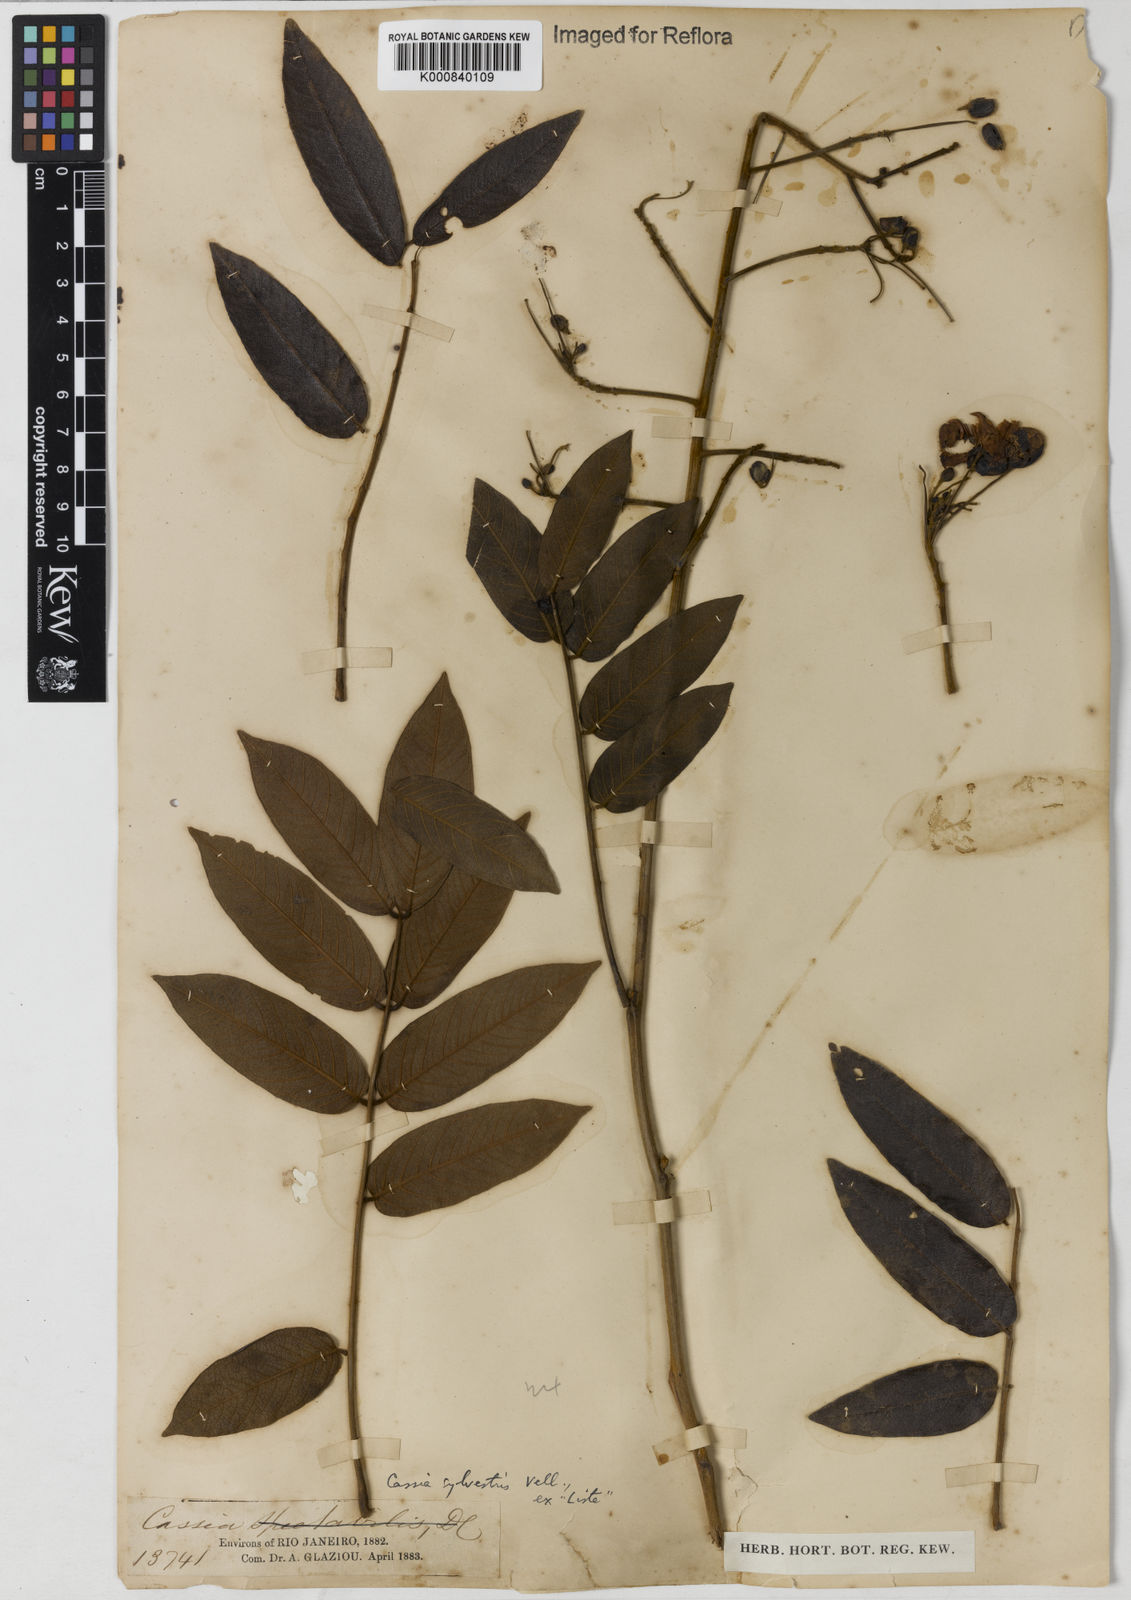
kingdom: Plantae
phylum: Tracheophyta
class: Magnoliopsida
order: Fabales
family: Fabaceae
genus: Senna
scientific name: Senna silvestris
